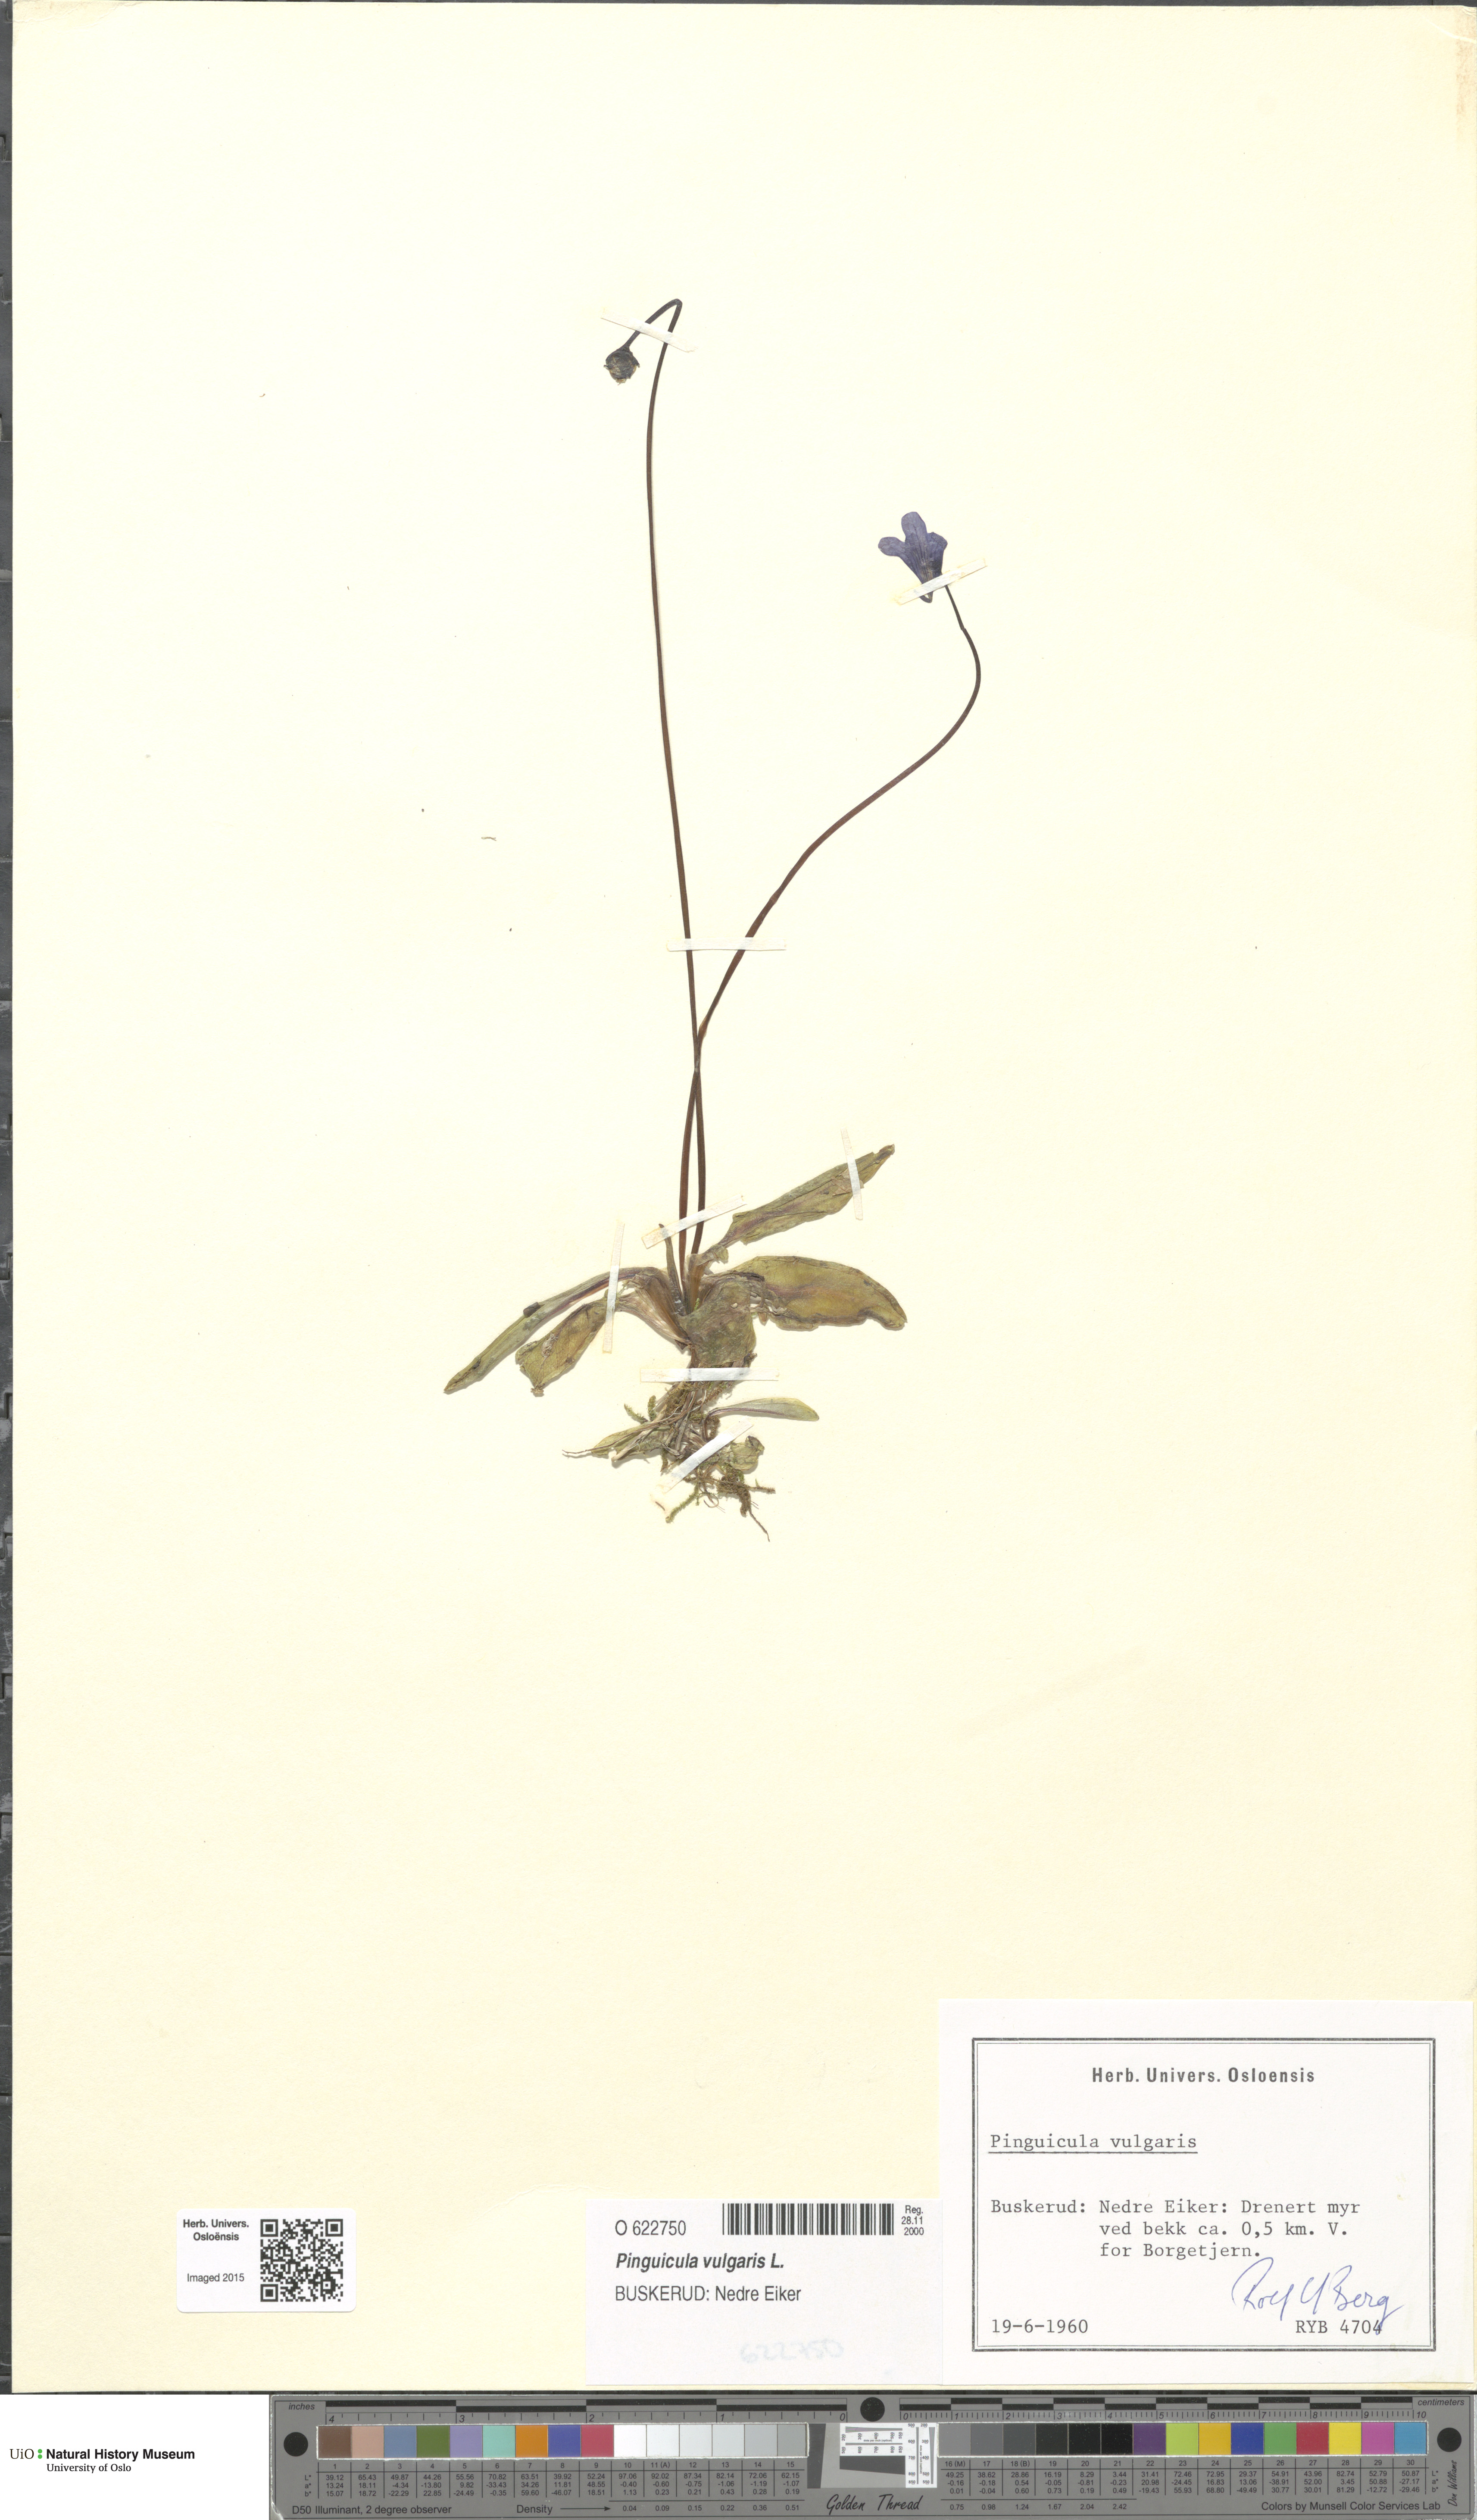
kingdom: Plantae
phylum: Tracheophyta
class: Magnoliopsida
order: Lamiales
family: Lentibulariaceae
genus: Pinguicula
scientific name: Pinguicula vulgaris
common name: Common butterwort
